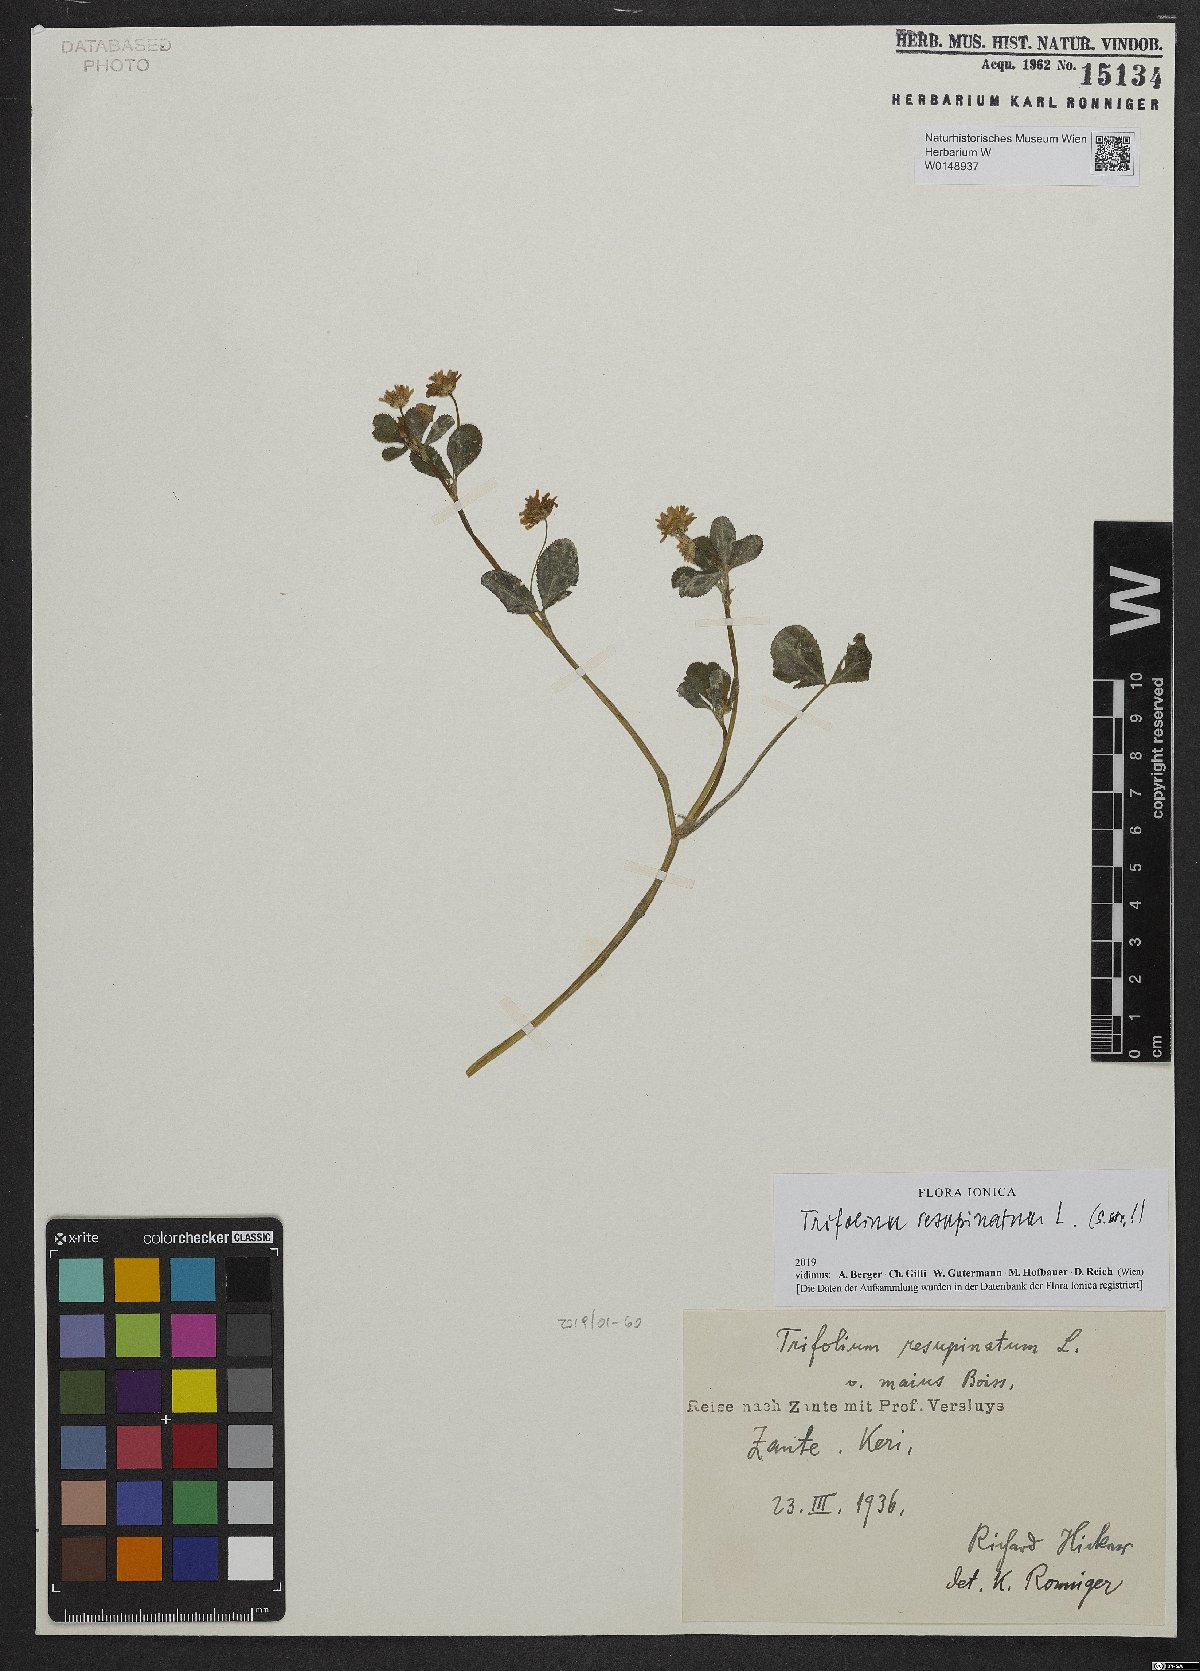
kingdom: Plantae
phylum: Tracheophyta
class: Magnoliopsida
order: Fabales
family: Fabaceae
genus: Trifolium
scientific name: Trifolium resupinatum
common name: Reversed clover
